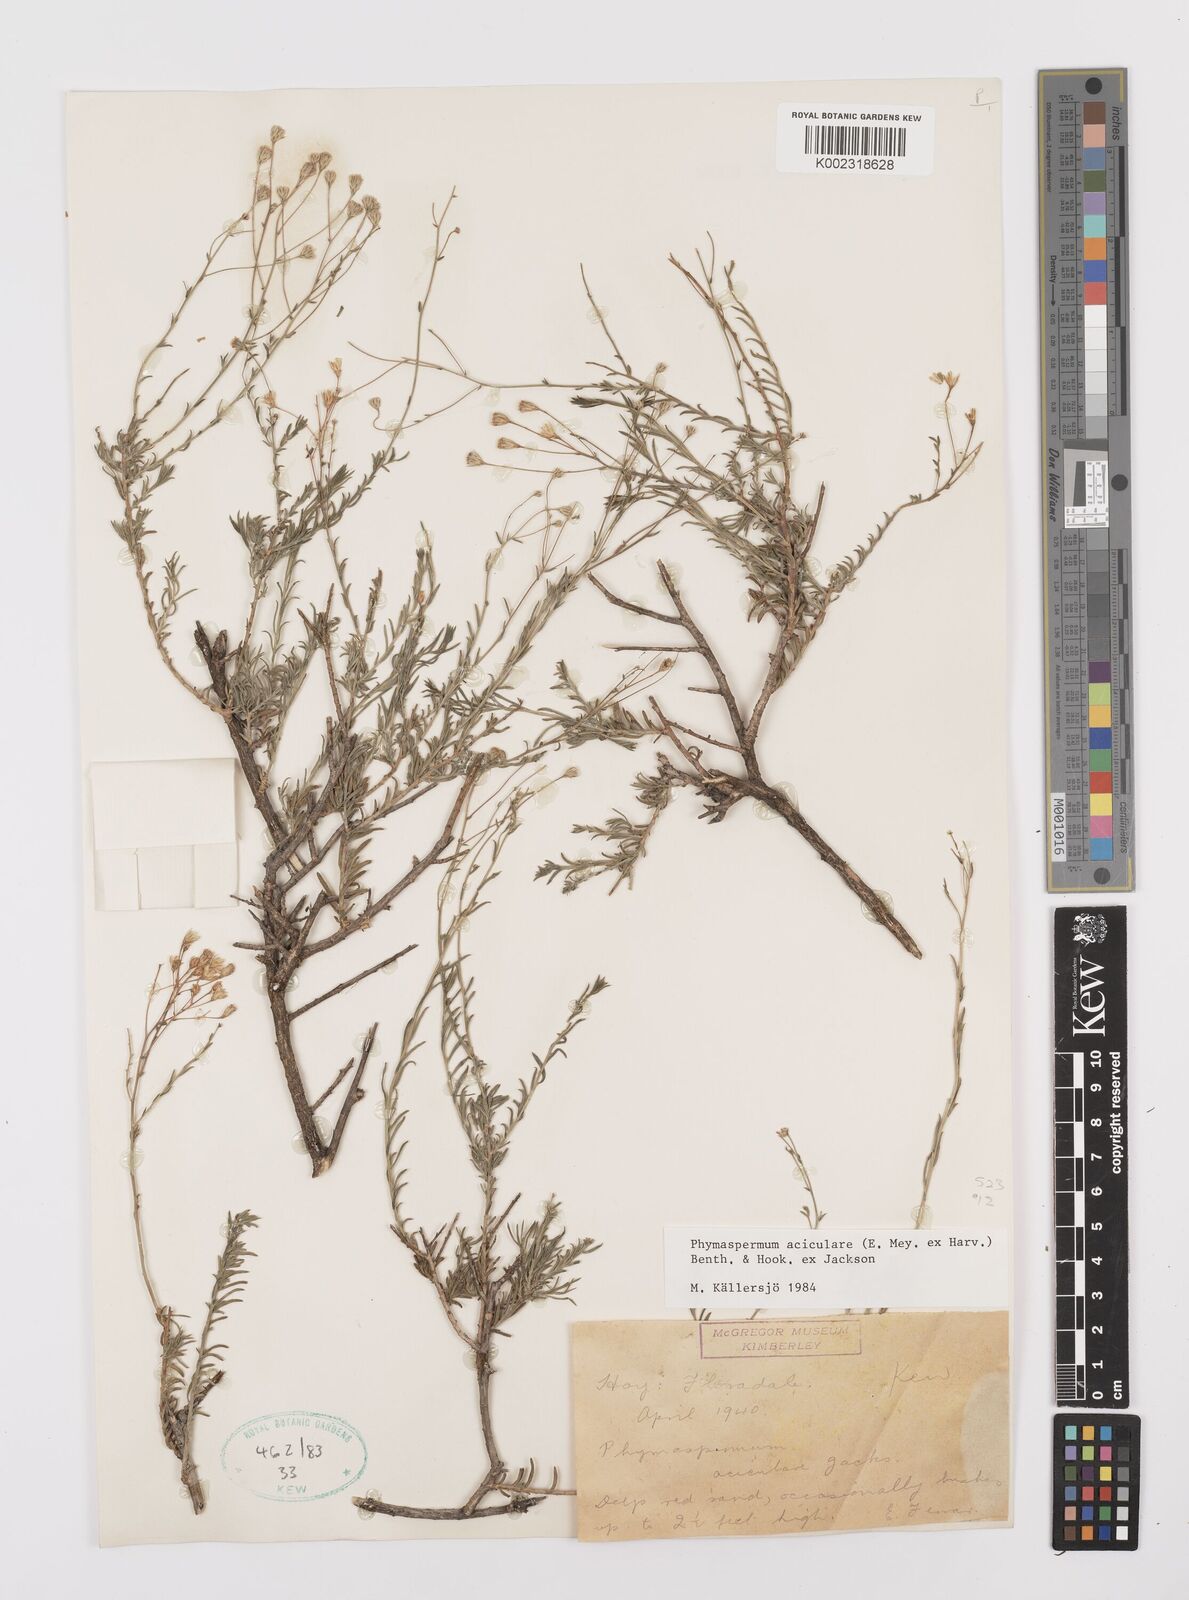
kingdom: Plantae
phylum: Tracheophyta
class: Magnoliopsida
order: Asterales
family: Asteraceae
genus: Phymaspermum
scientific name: Phymaspermum aciculare
